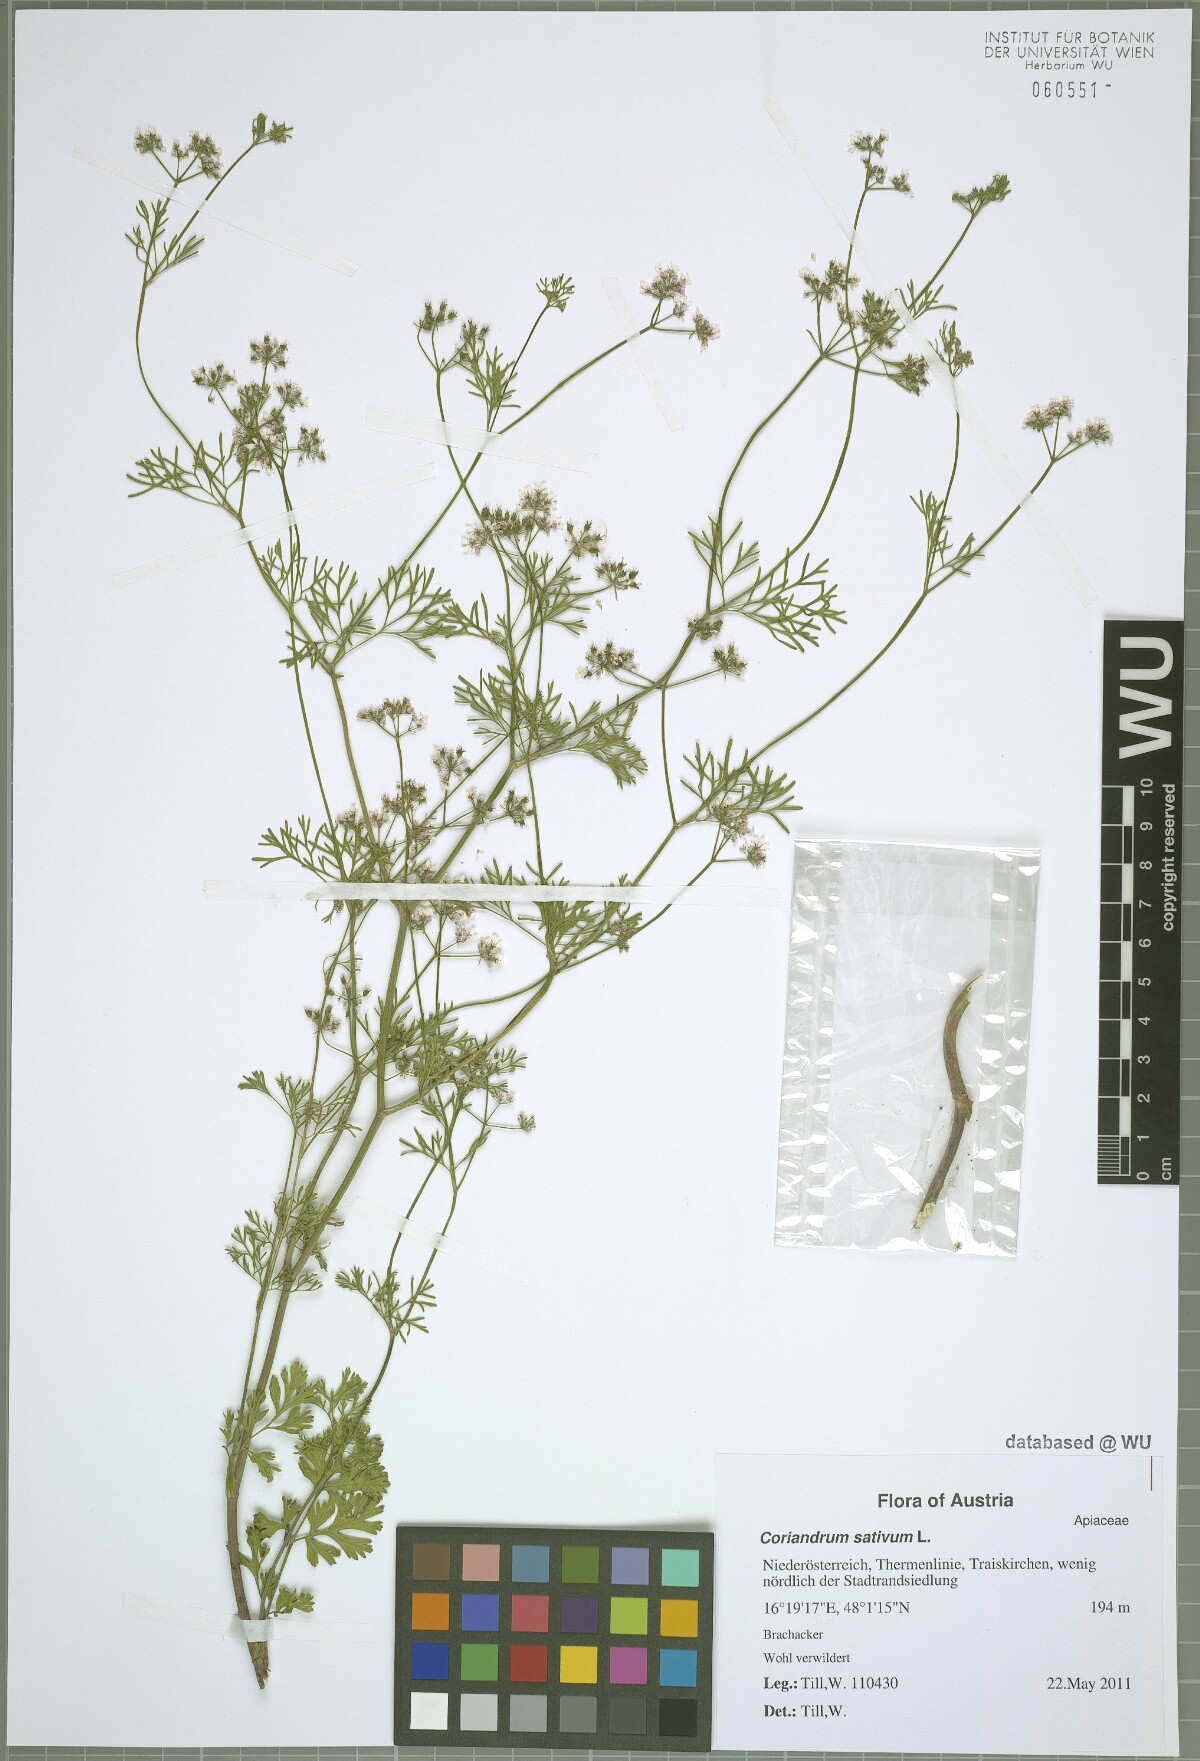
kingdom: Plantae
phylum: Tracheophyta
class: Magnoliopsida
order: Apiales
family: Apiaceae
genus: Coriandrum
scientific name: Coriandrum sativum
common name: Coriander
